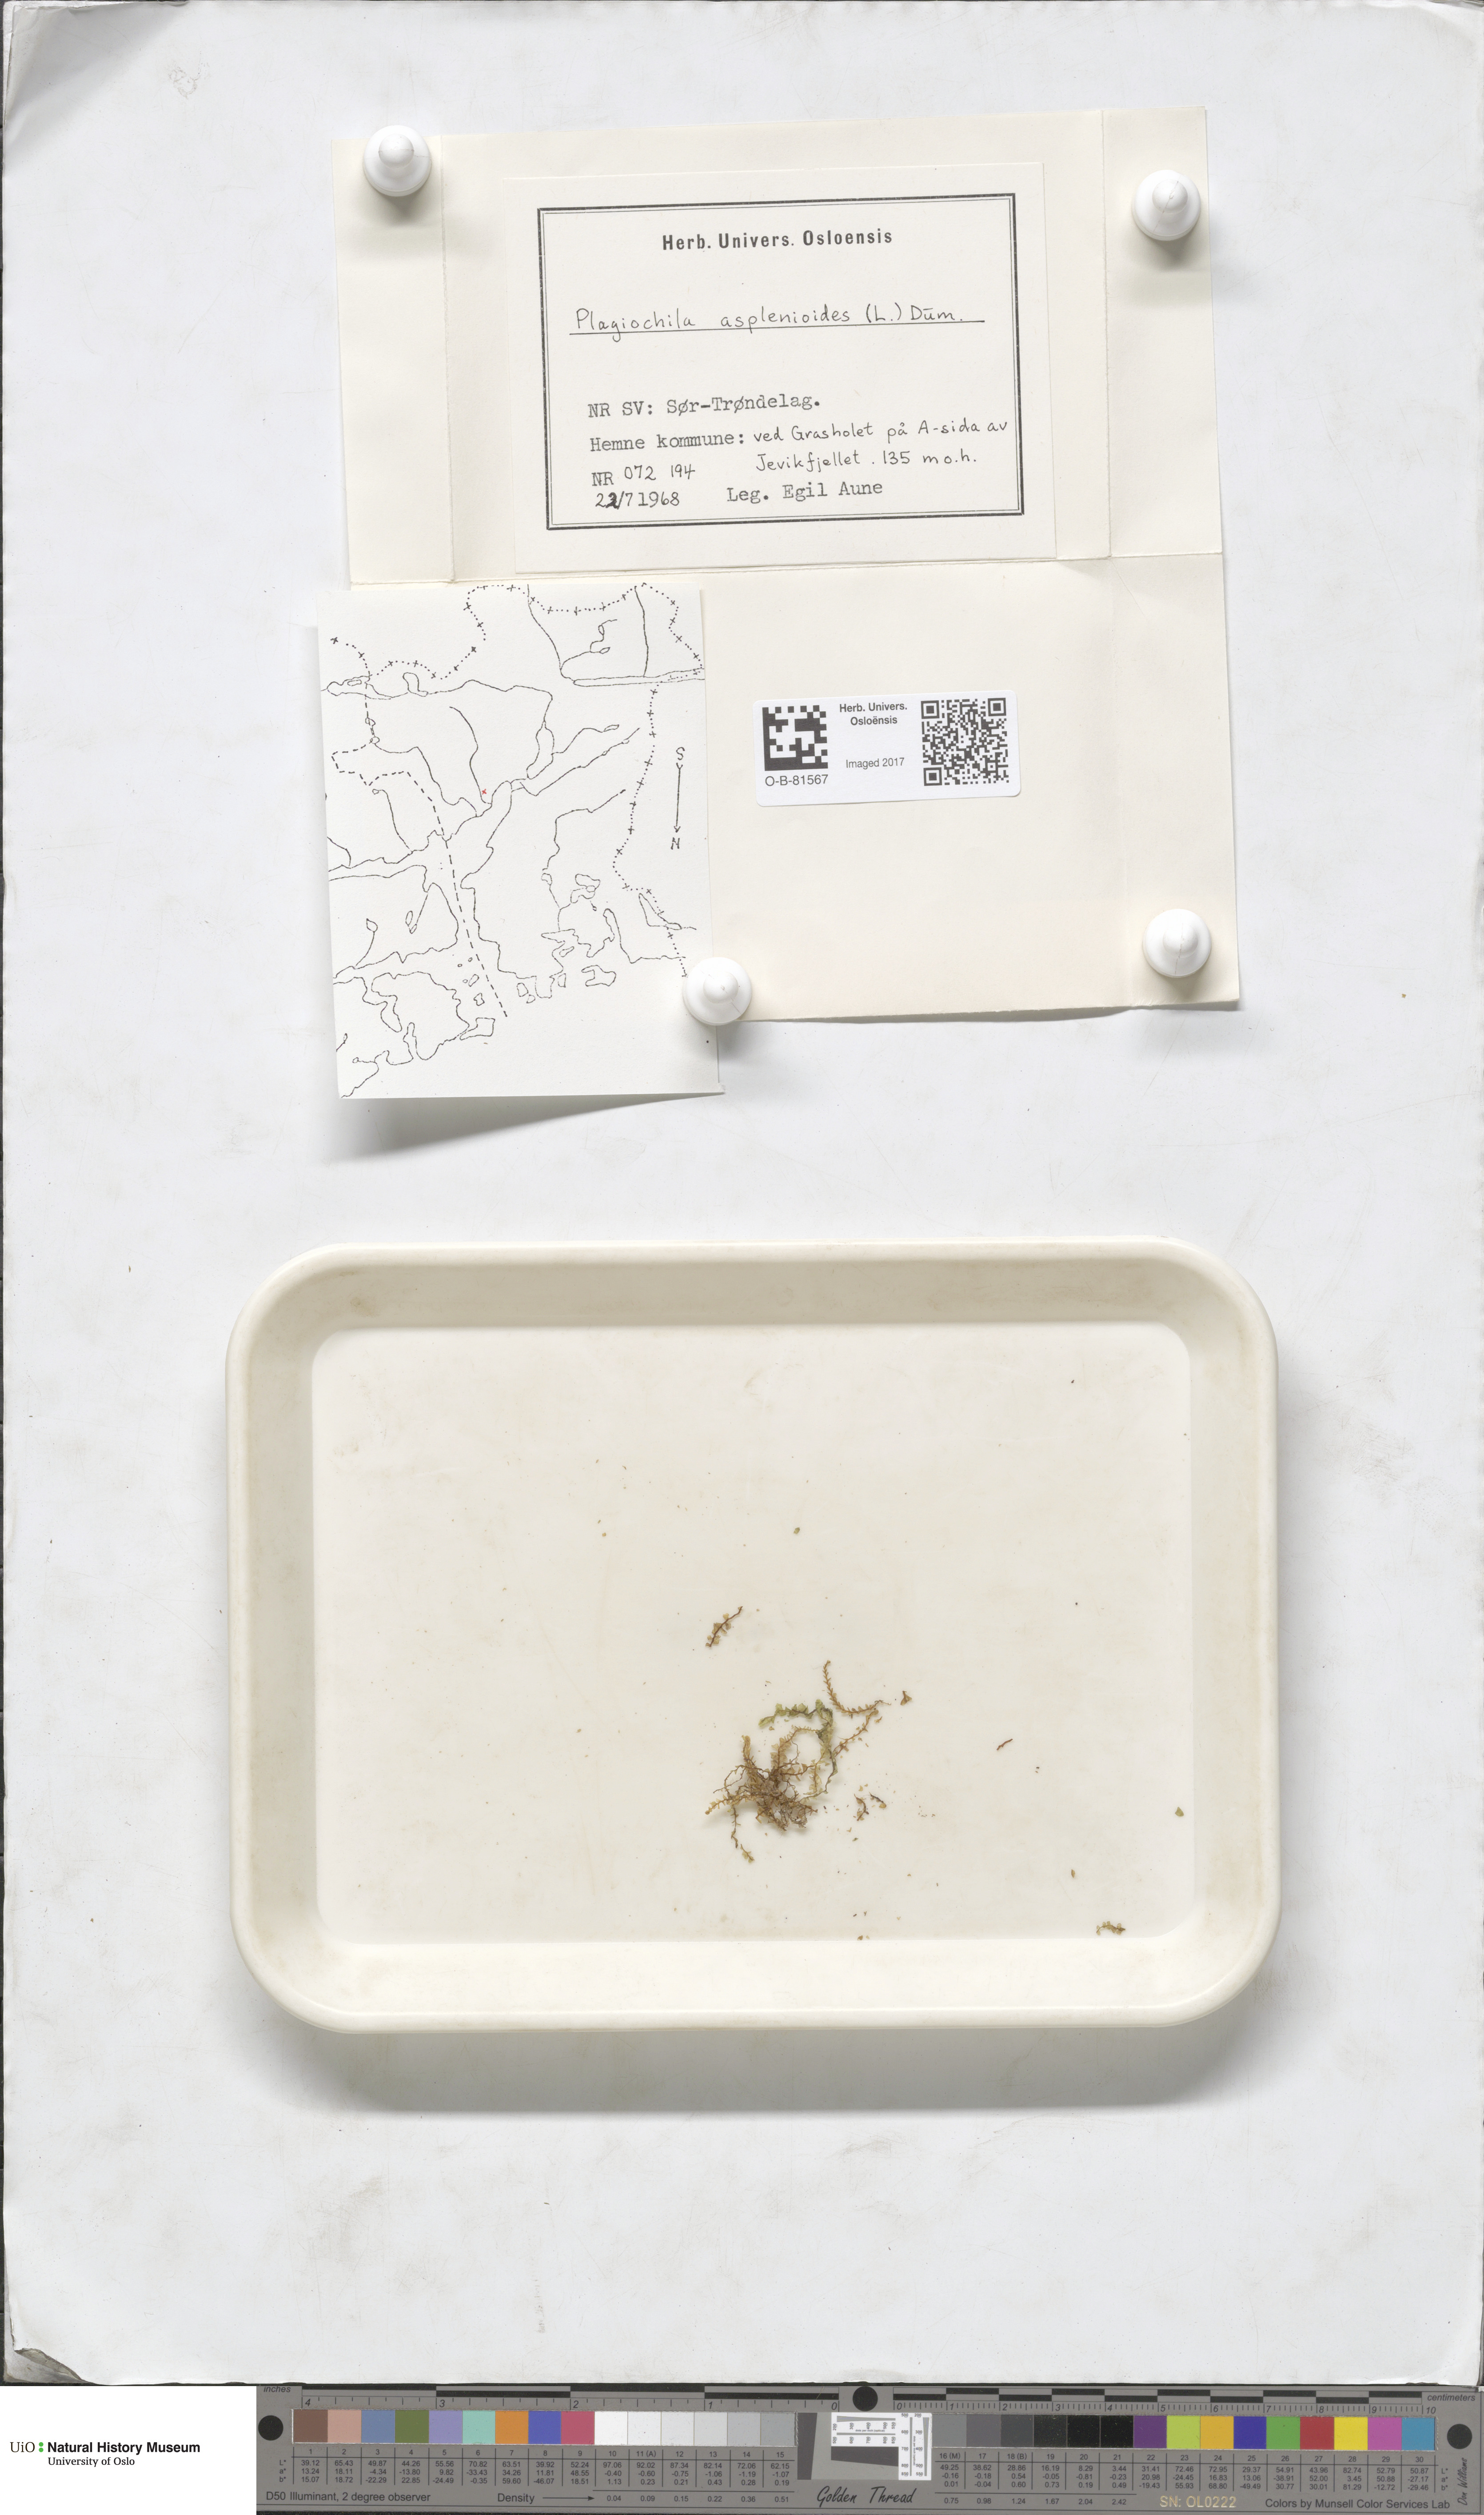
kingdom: Plantae
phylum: Marchantiophyta
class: Jungermanniopsida
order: Jungermanniales
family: Plagiochilaceae
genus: Plagiochila
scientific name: Plagiochila asplenioides
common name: Greater featherwort
